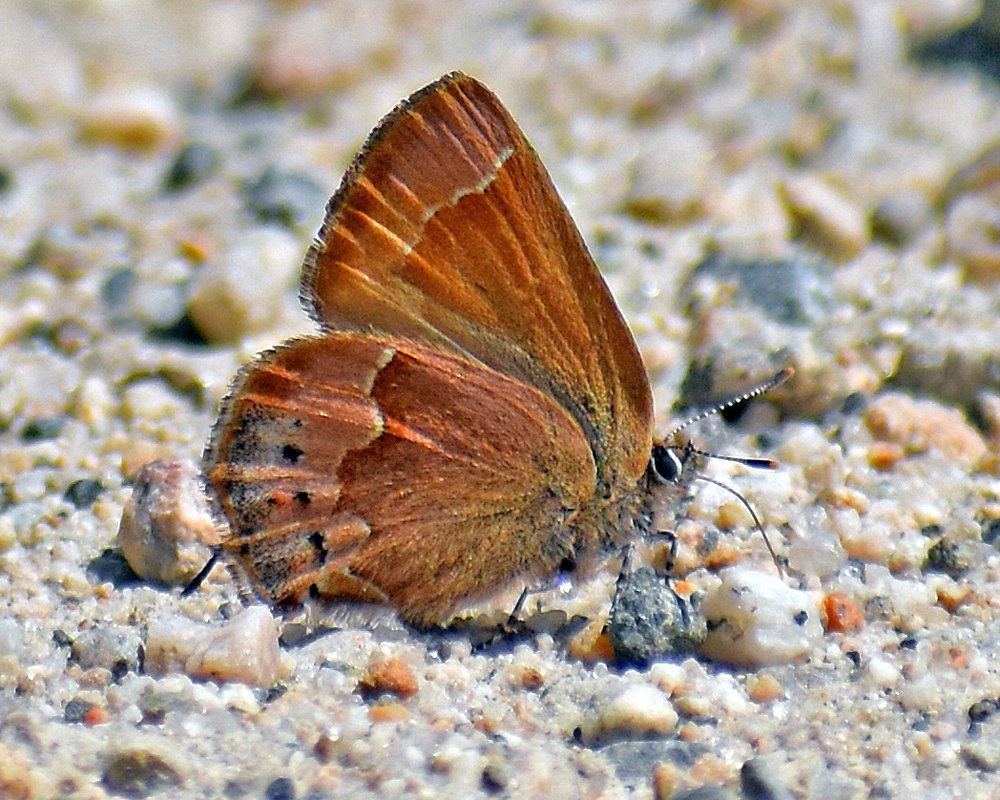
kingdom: Animalia
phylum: Arthropoda
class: Insecta
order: Lepidoptera
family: Lycaenidae
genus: Mitoura
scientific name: Mitoura nelsoni
